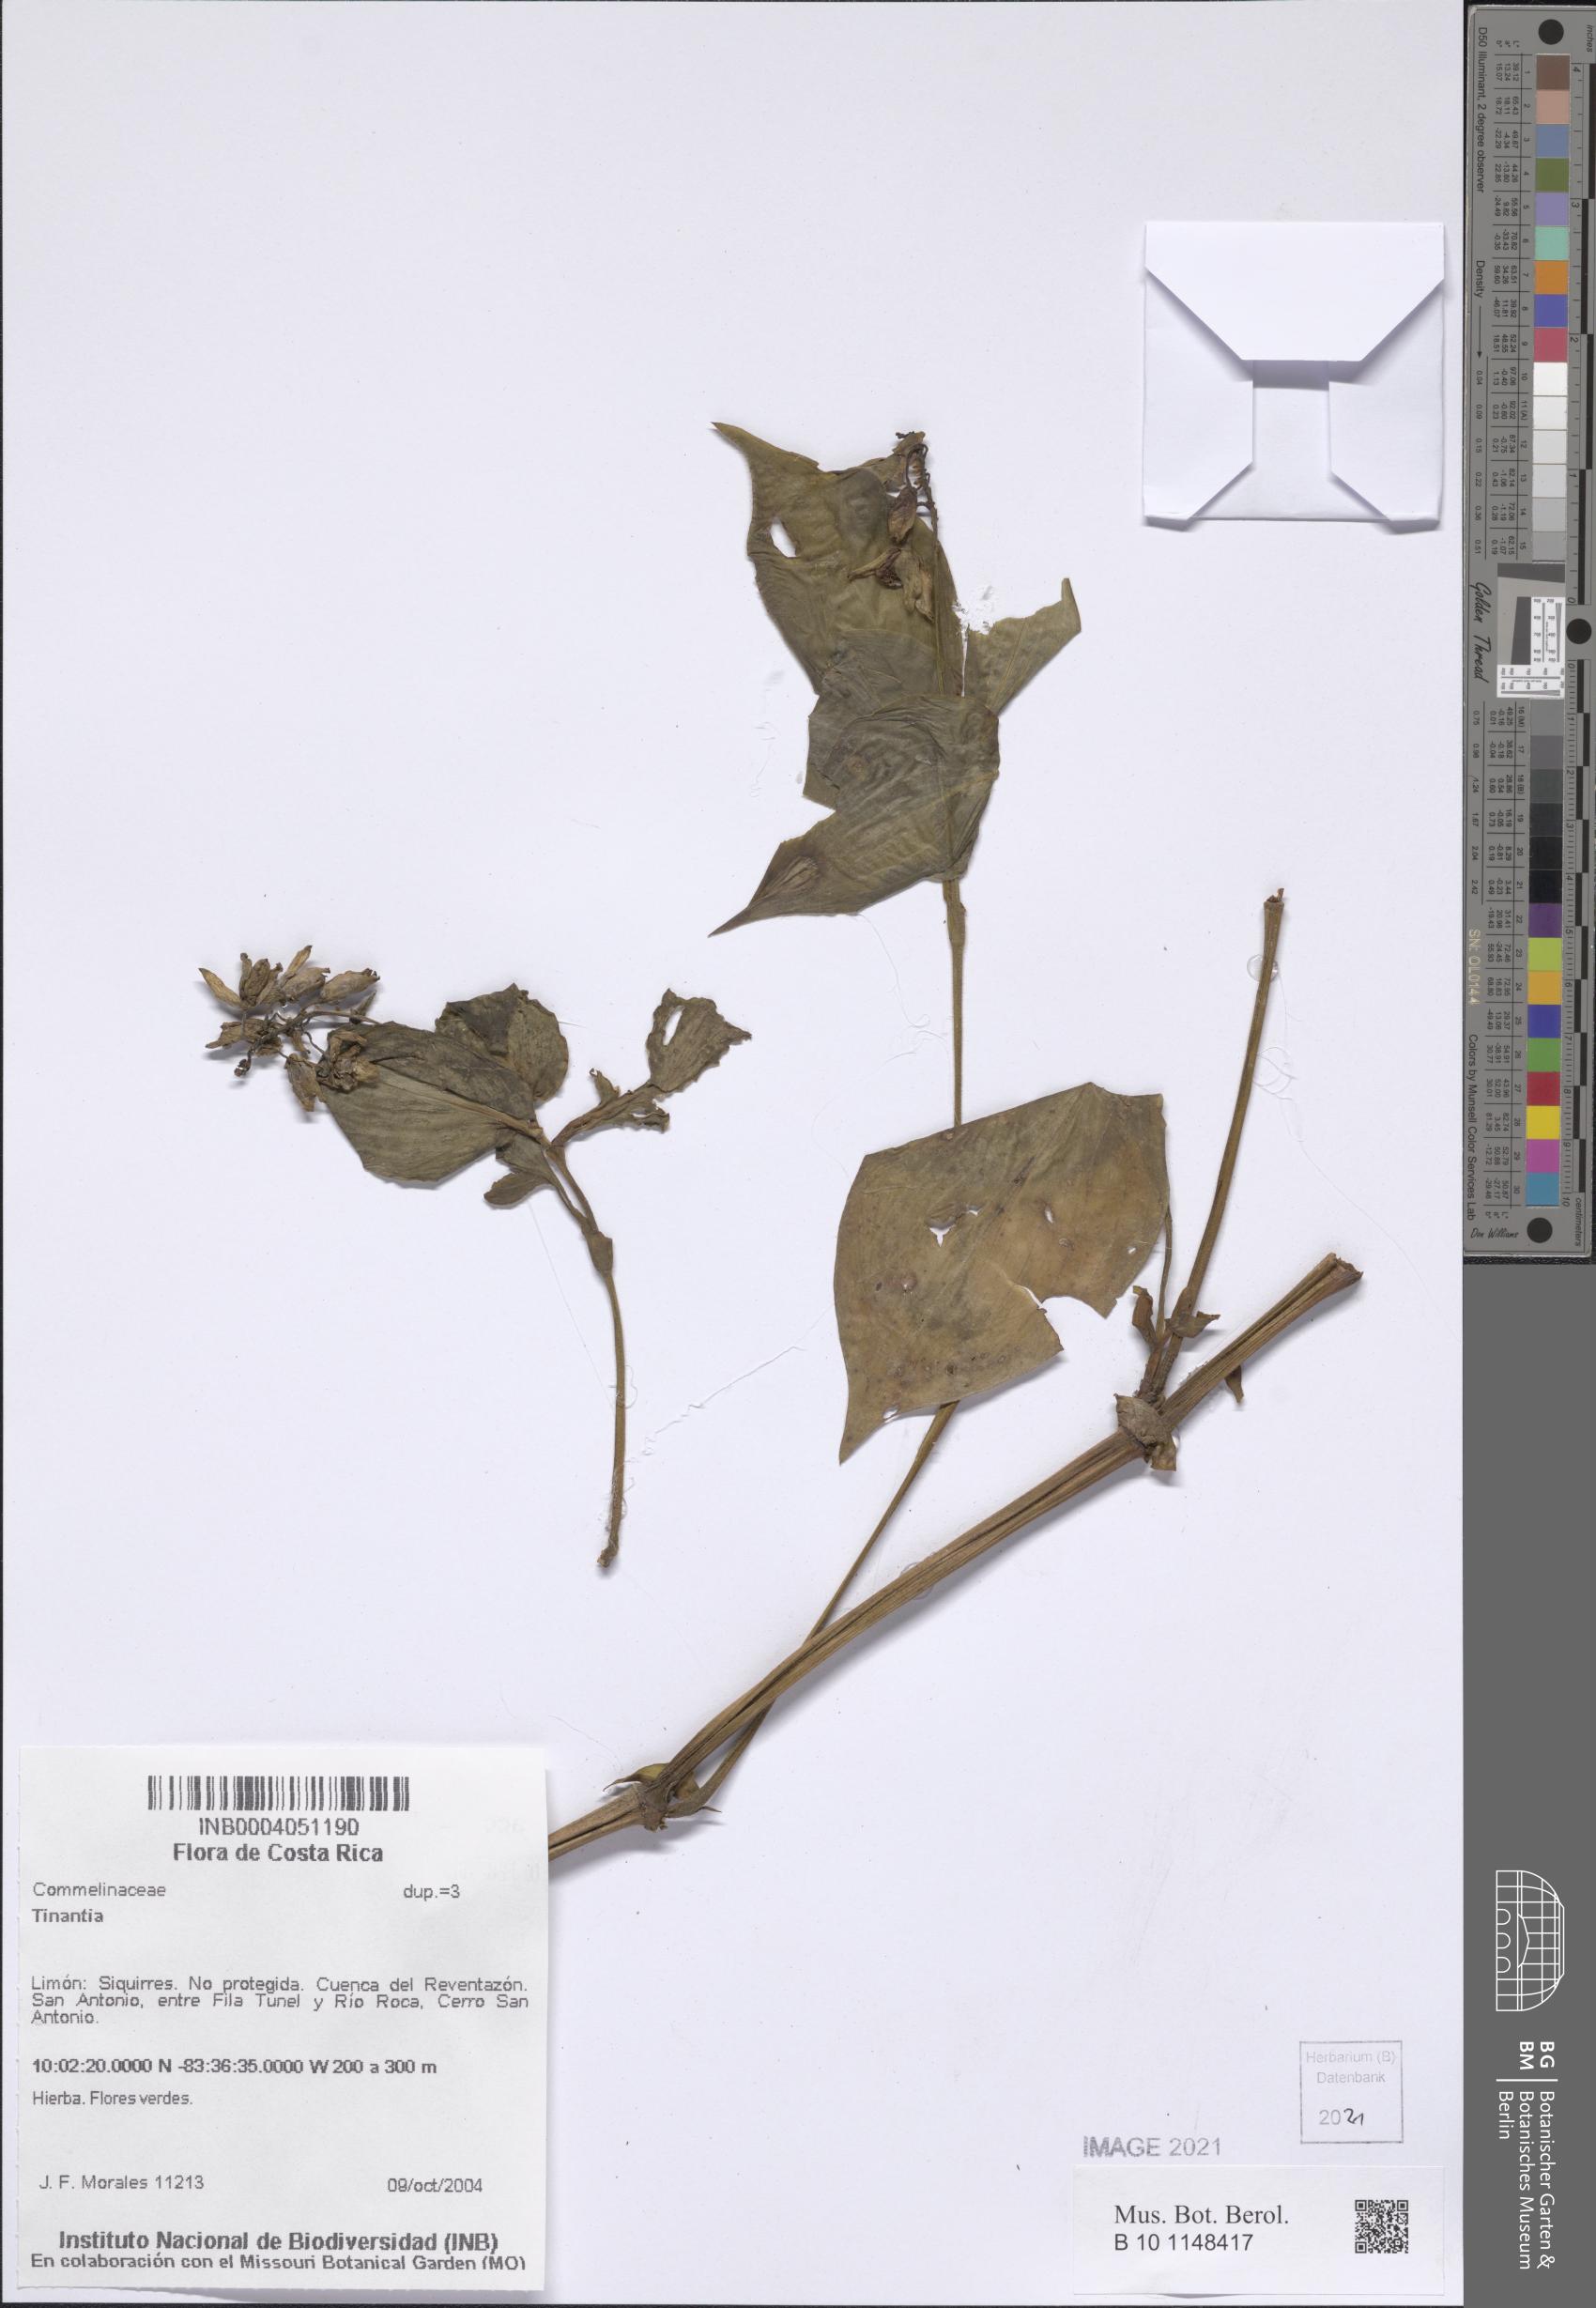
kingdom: Plantae
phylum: Tracheophyta
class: Liliopsida
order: Commelinales
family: Commelinaceae
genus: Tinantia
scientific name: Tinantia
